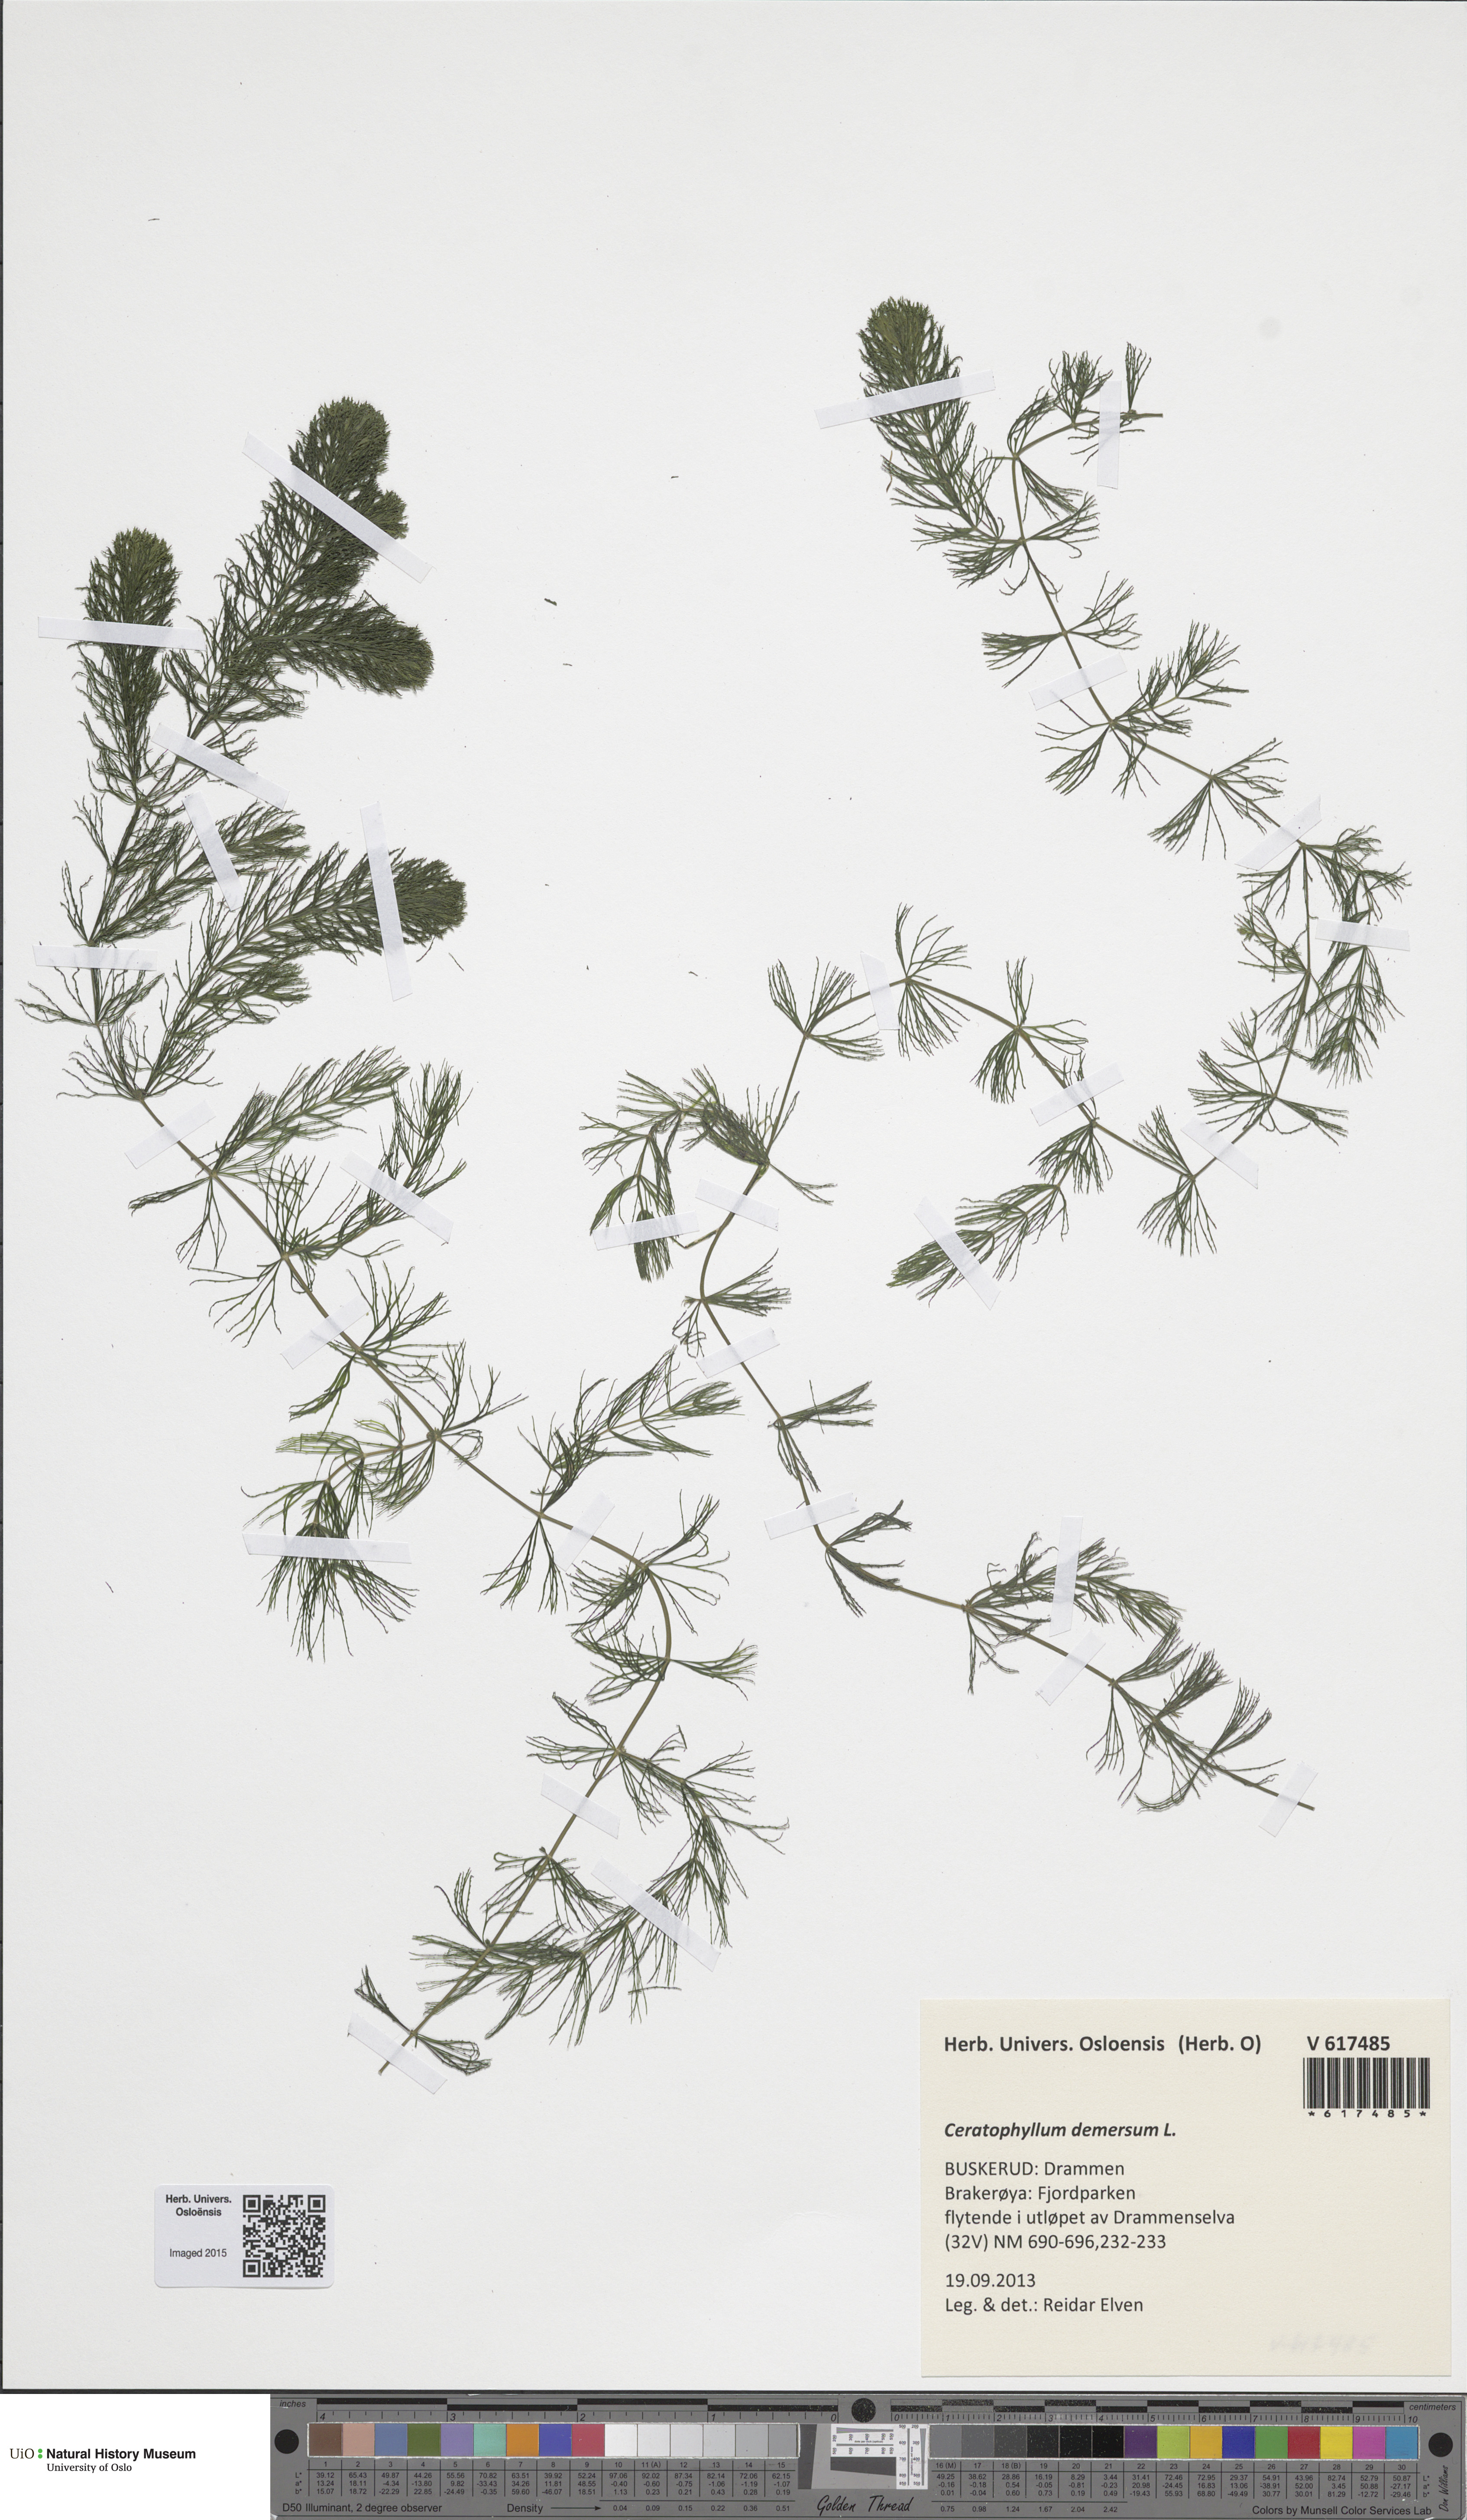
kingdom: Plantae
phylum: Tracheophyta
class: Magnoliopsida
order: Ceratophyllales
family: Ceratophyllaceae
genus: Ceratophyllum
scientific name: Ceratophyllum demersum
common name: Rigid hornwort
